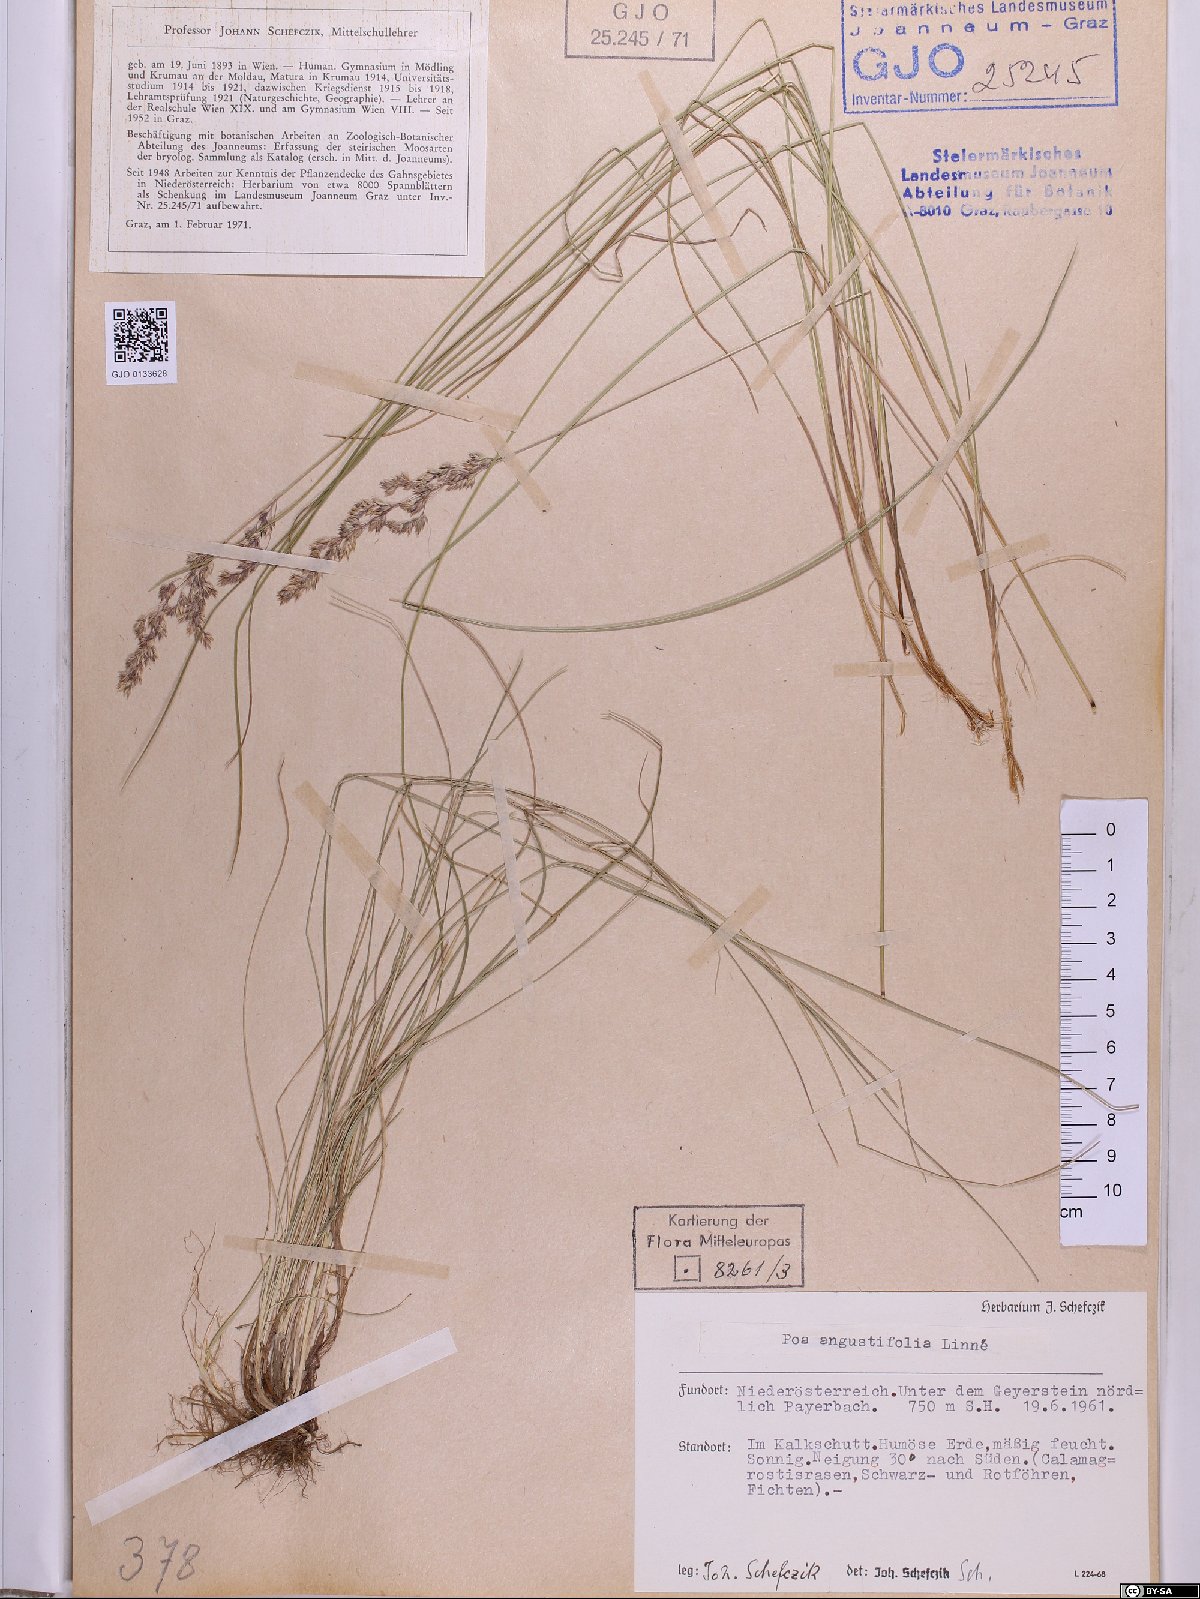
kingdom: Plantae
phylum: Tracheophyta
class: Liliopsida
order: Poales
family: Poaceae
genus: Poa
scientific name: Poa angustifolia
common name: Narrow-leaved meadow-grass
